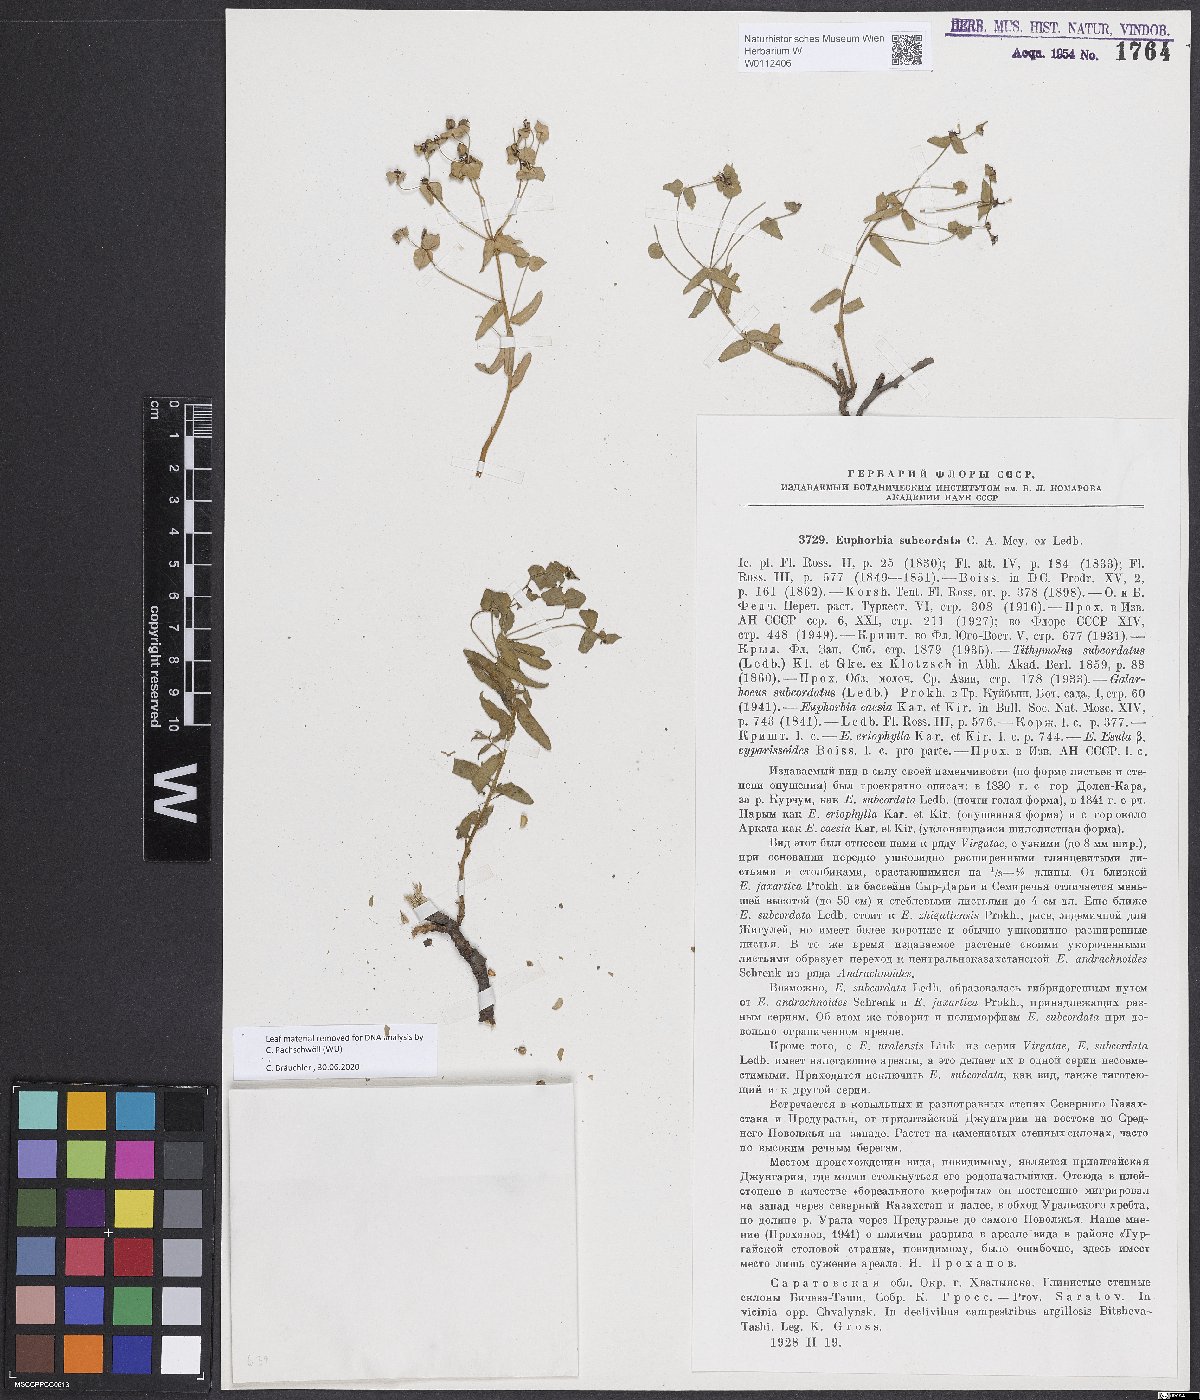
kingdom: Plantae
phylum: Tracheophyta
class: Magnoliopsida
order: Malpighiales
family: Euphorbiaceae
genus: Euphorbia
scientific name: Euphorbia subcordata
